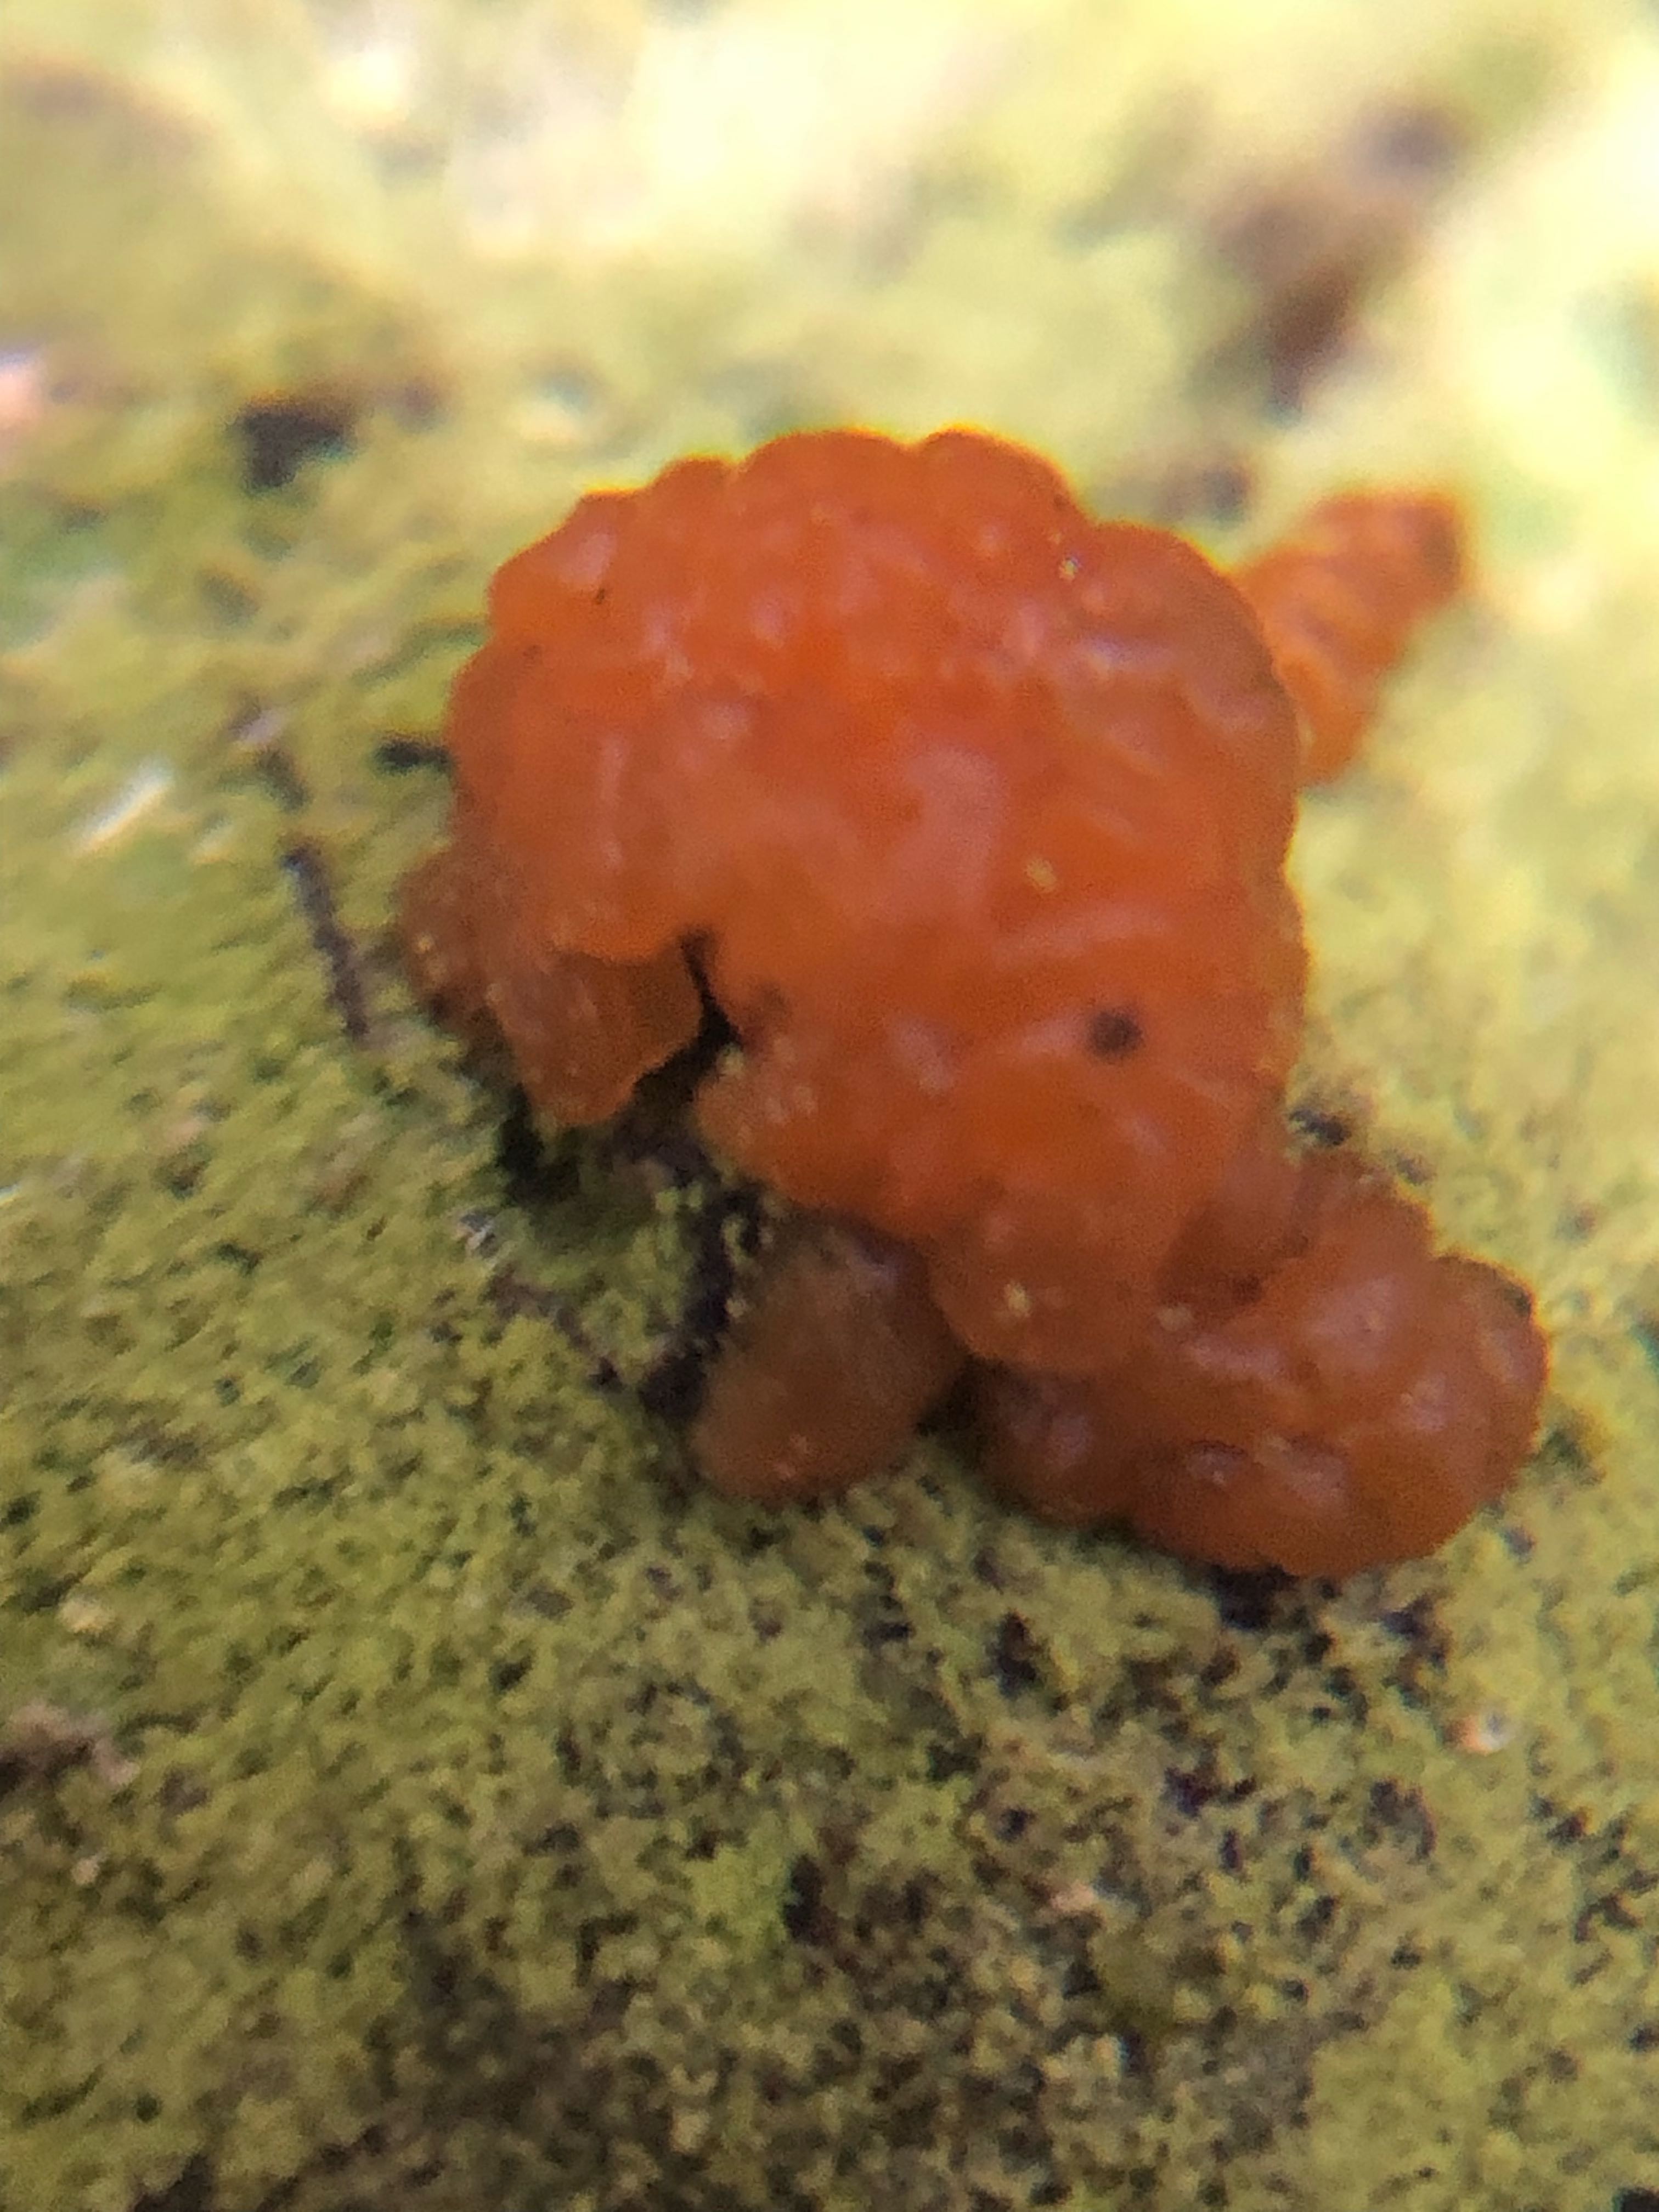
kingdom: Fungi
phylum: Basidiomycota
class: Dacrymycetes
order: Dacrymycetales
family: Dacrymycetaceae
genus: Dacrymyces
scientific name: Dacrymyces lacrymalis
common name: rynket tåresvamp
